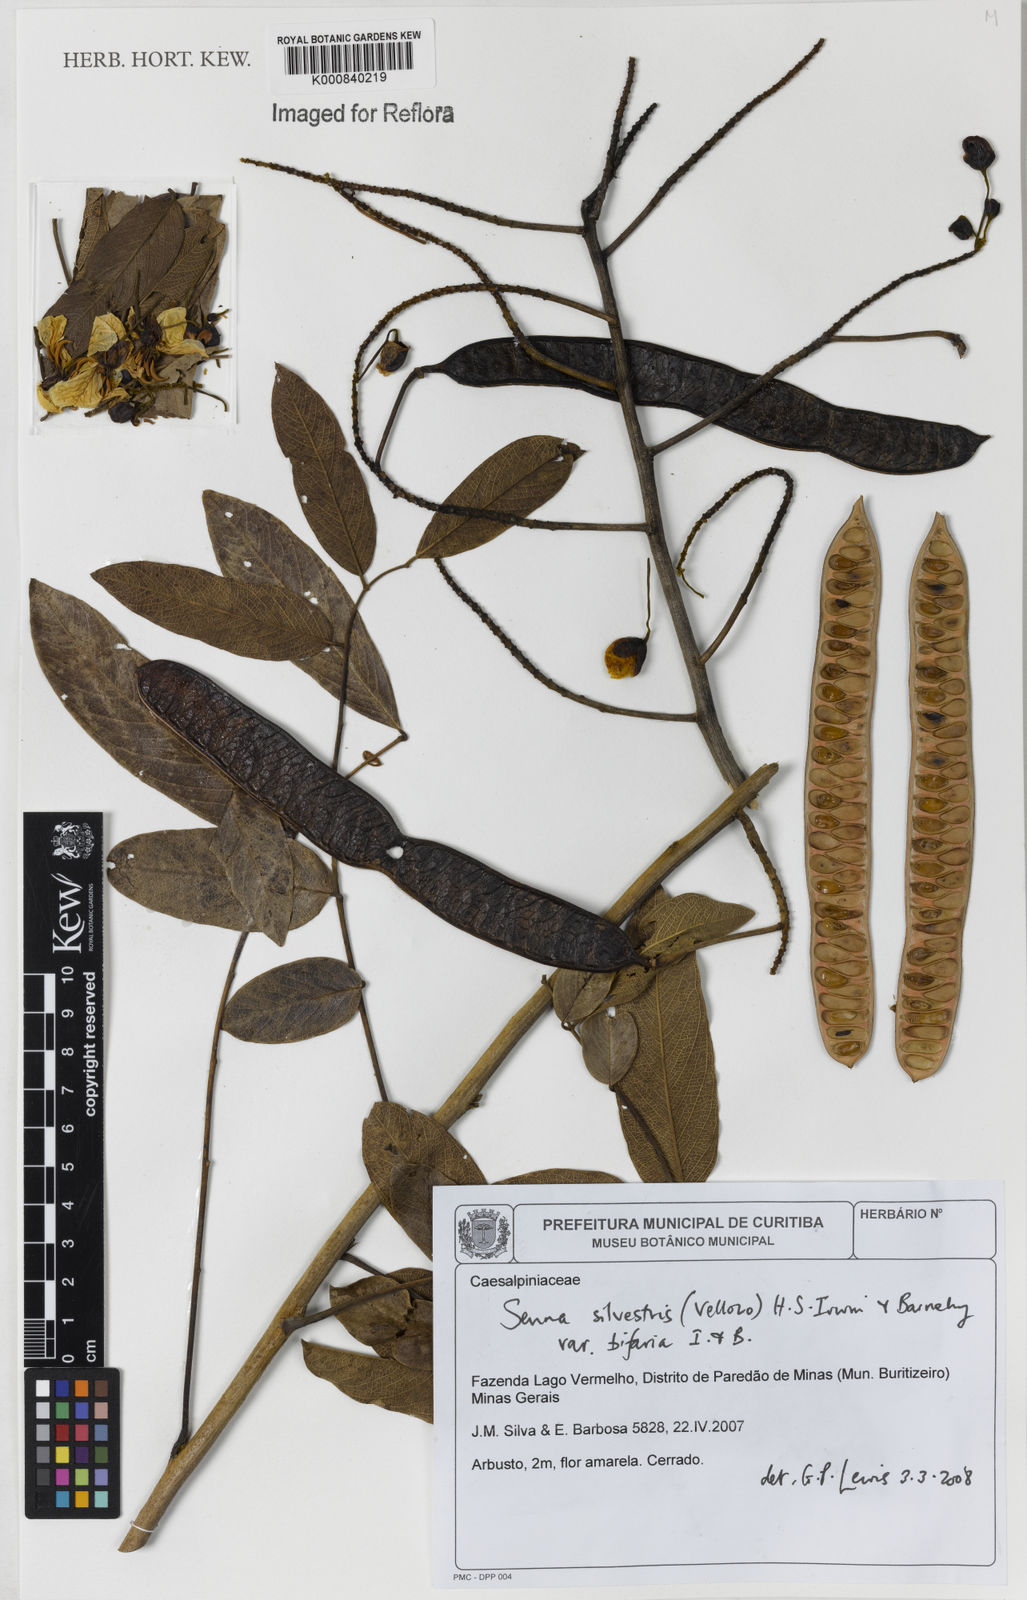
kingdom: Plantae
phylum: Tracheophyta
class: Magnoliopsida
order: Fabales
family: Fabaceae
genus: Senna
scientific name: Senna silvestris
